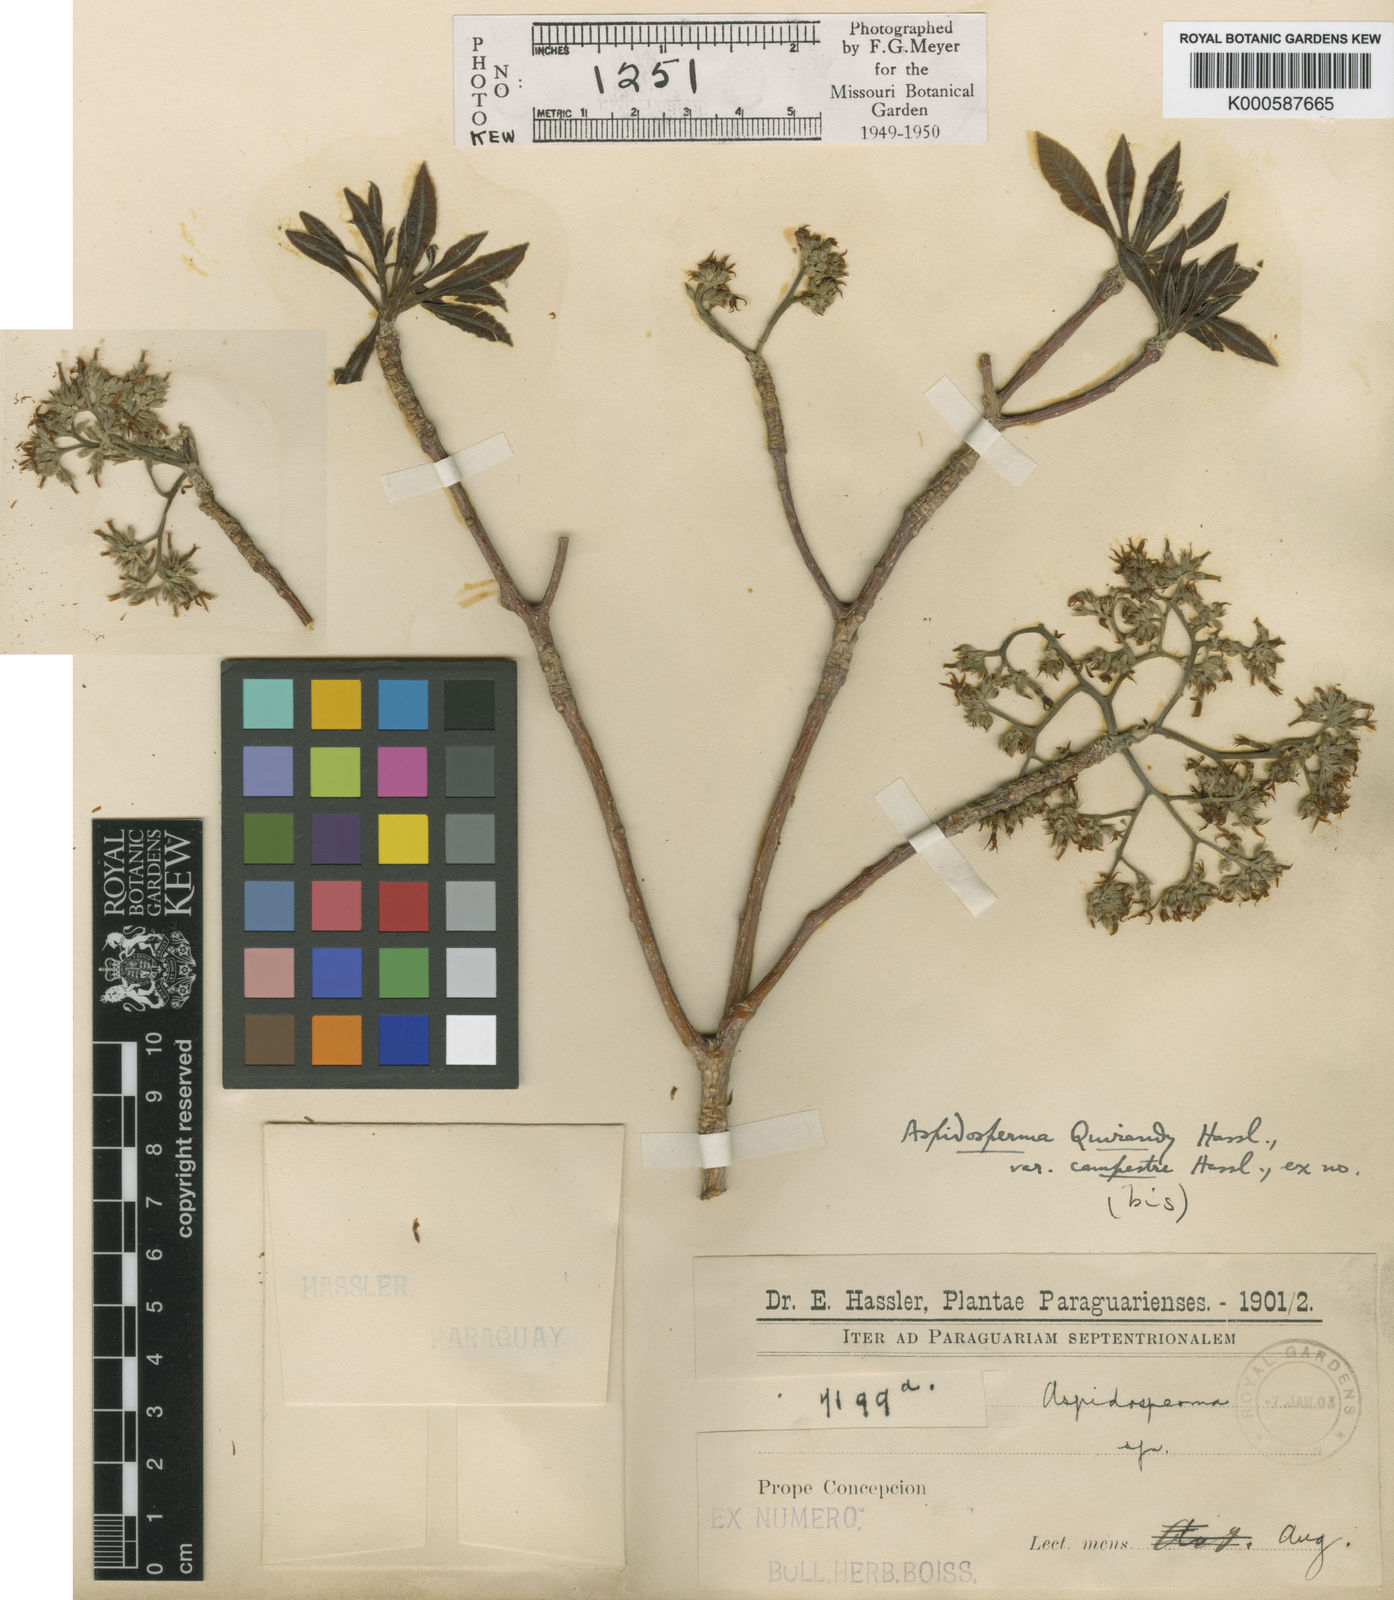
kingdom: Plantae
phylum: Tracheophyta
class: Magnoliopsida
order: Gentianales
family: Apocynaceae
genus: Aspidosperma
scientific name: Aspidosperma
